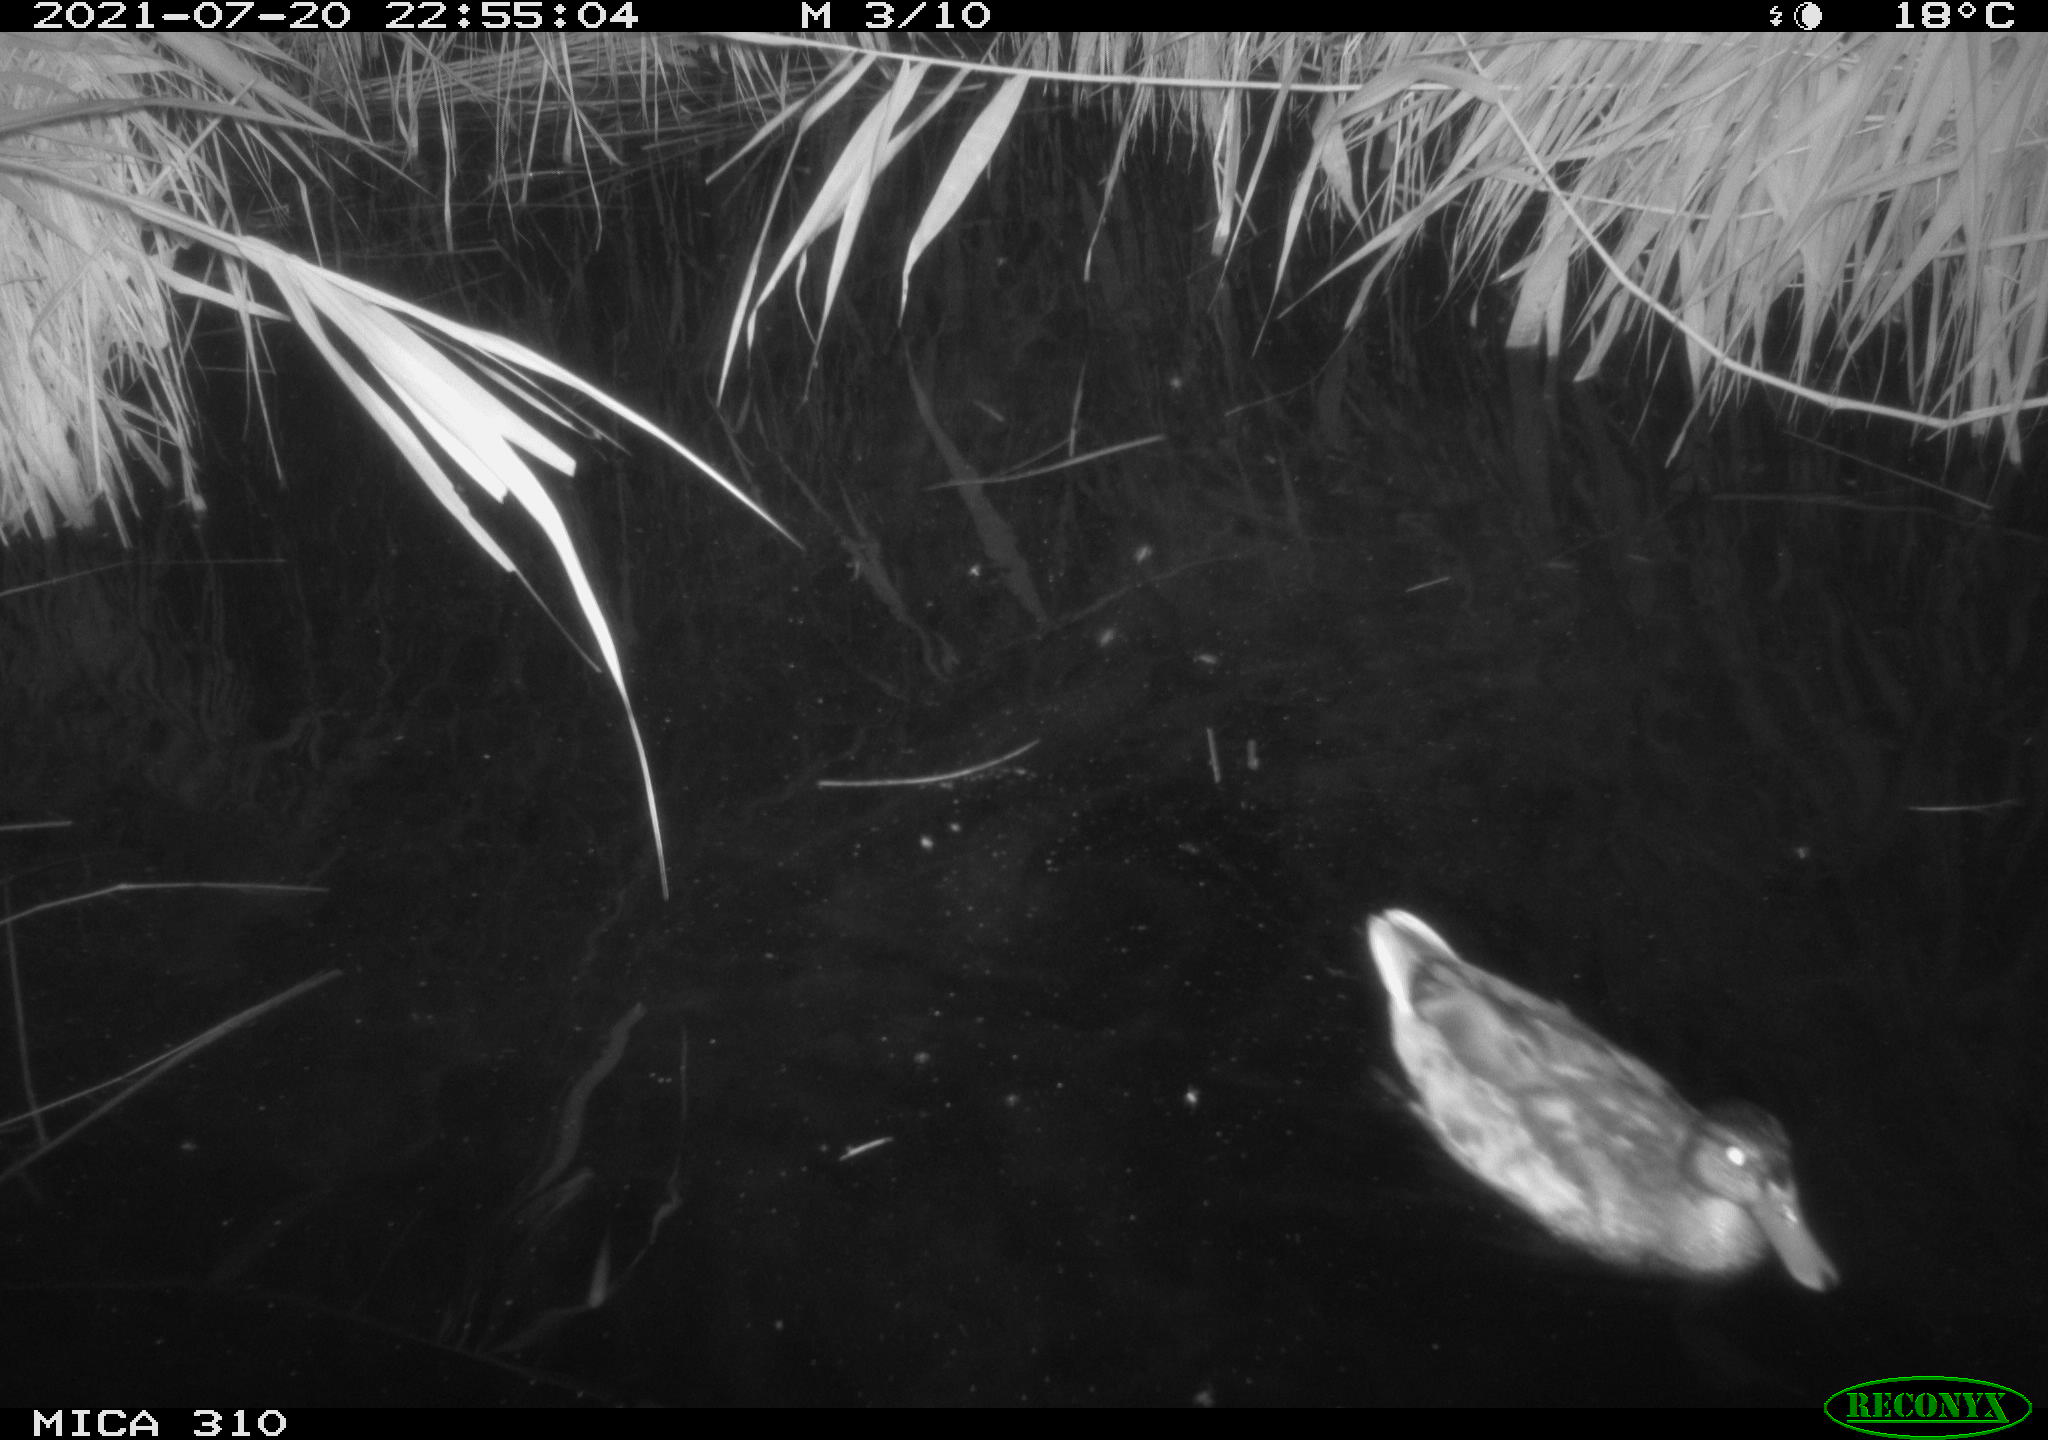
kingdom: Animalia
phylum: Chordata
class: Aves
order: Anseriformes
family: Anatidae
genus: Anas
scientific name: Anas platyrhynchos
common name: Mallard
